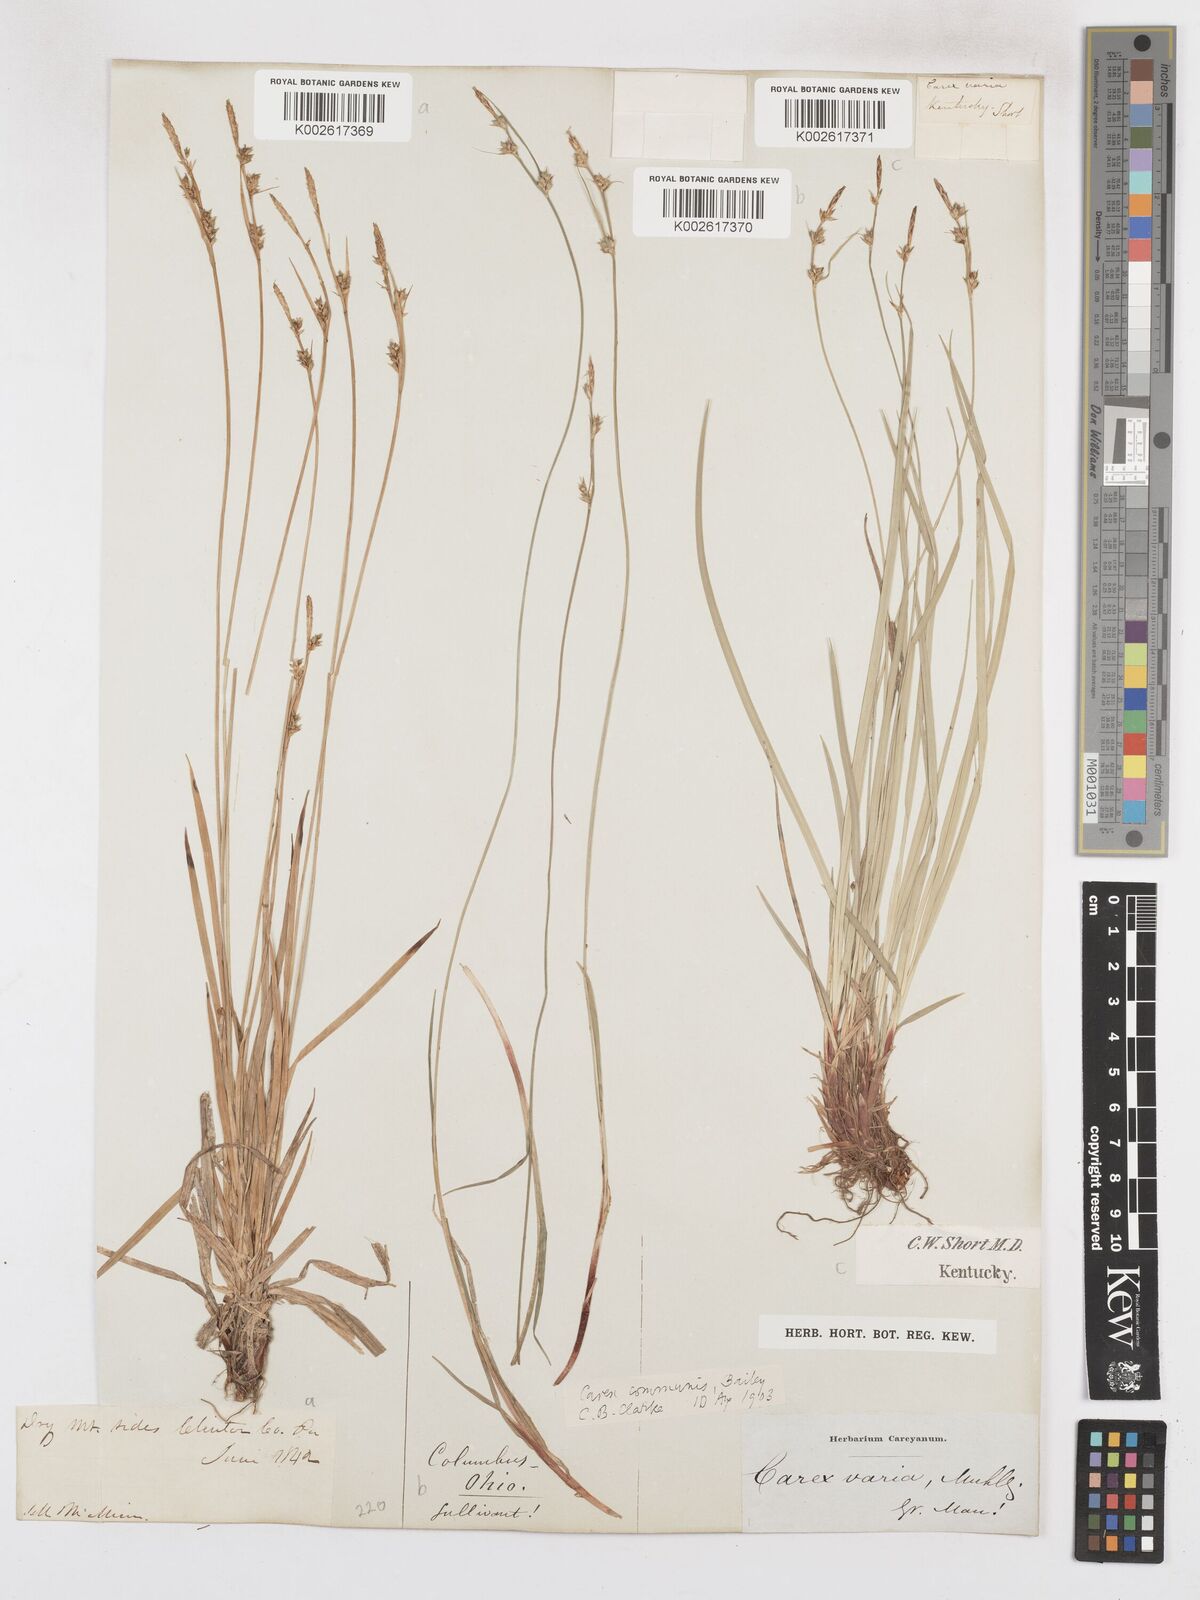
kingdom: Plantae
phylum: Tracheophyta
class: Liliopsida
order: Poales
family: Cyperaceae
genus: Carex
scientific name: Carex communis
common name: Colonial oak sedge
